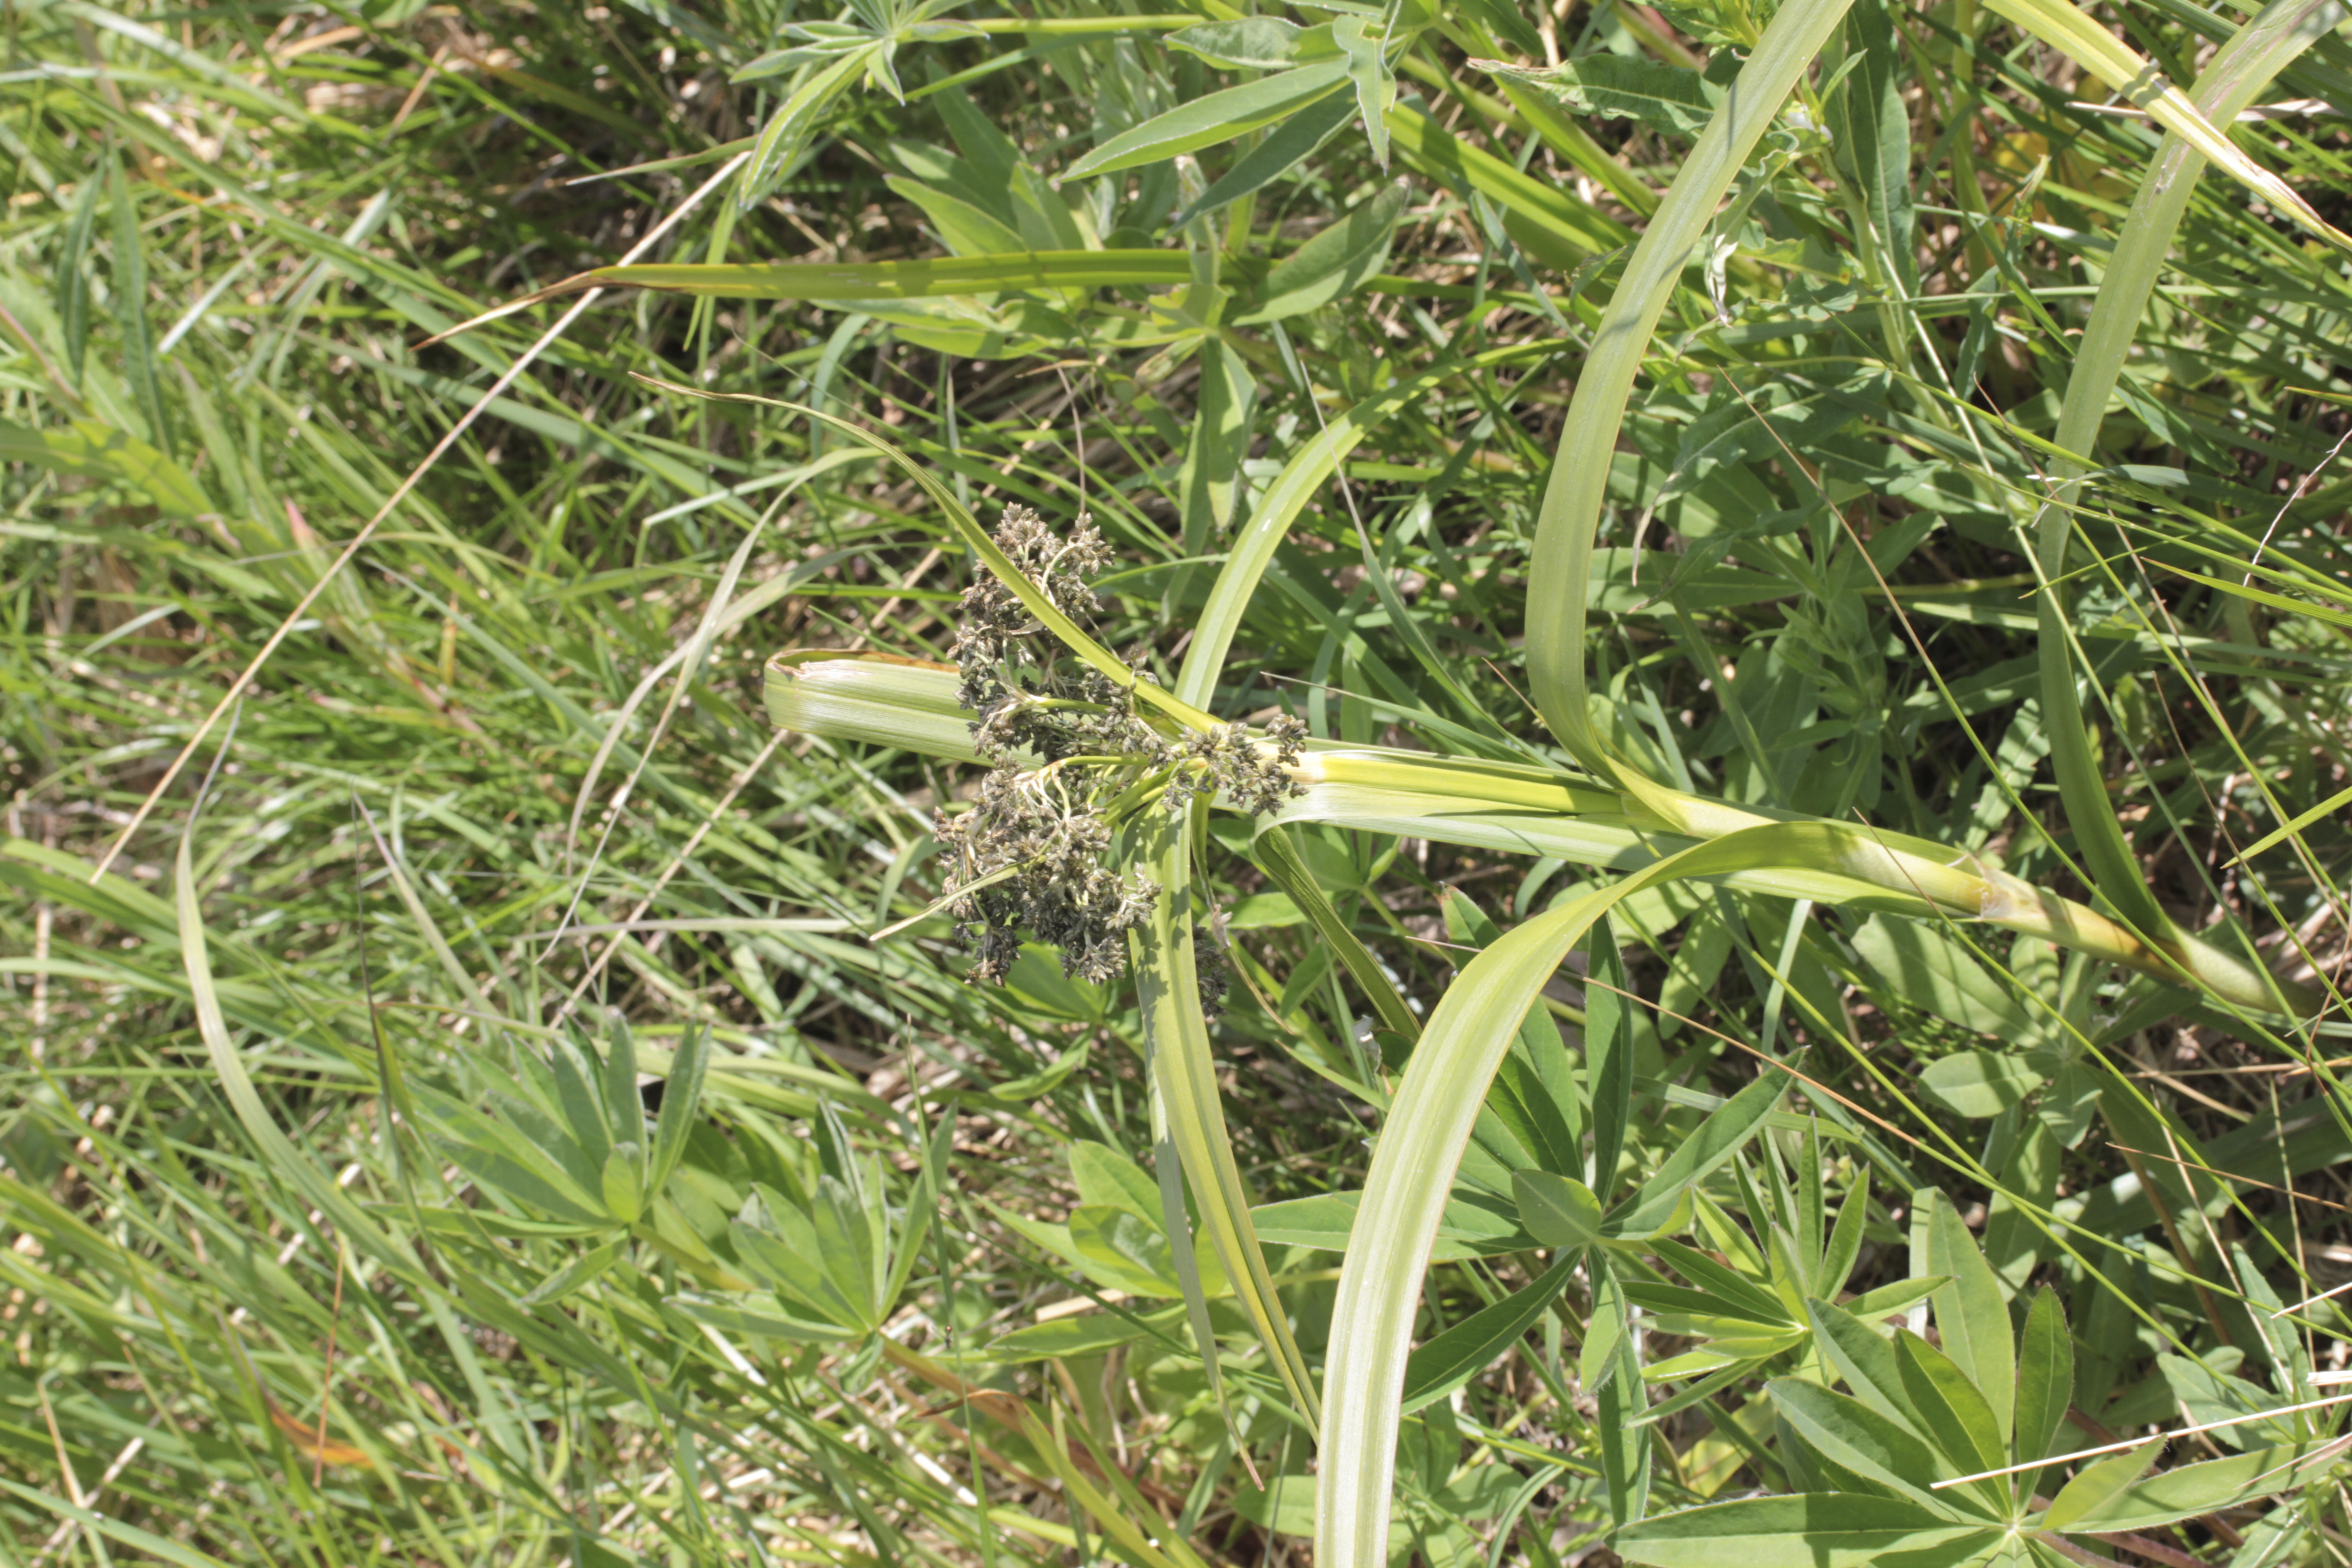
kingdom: Plantae
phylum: Tracheophyta
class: Liliopsida
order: Poales
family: Cyperaceae
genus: Scirpus
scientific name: Scirpus sylvaticus
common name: Wood club-rush
